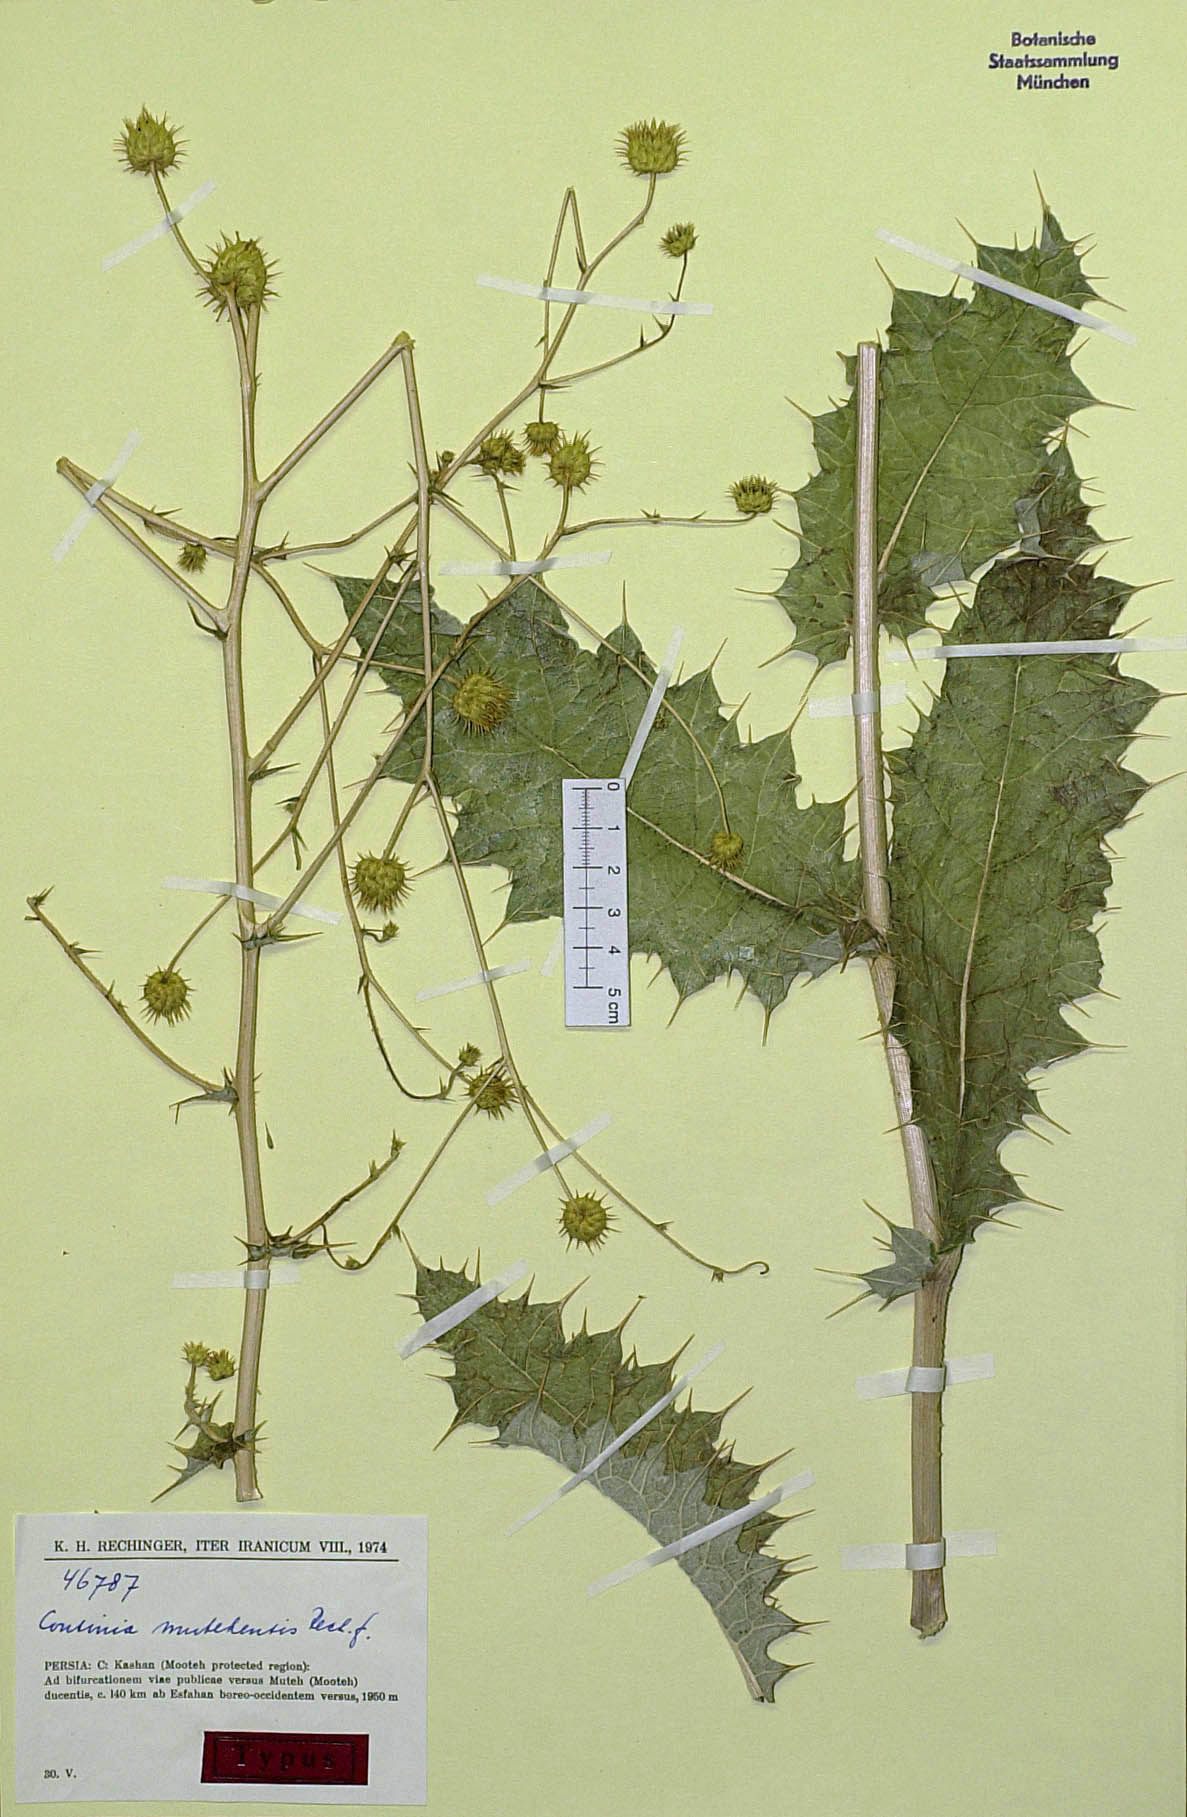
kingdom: Plantae
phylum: Tracheophyta
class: Magnoliopsida
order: Asterales
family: Asteraceae
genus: Cousinia
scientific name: Cousinia mutehensis
